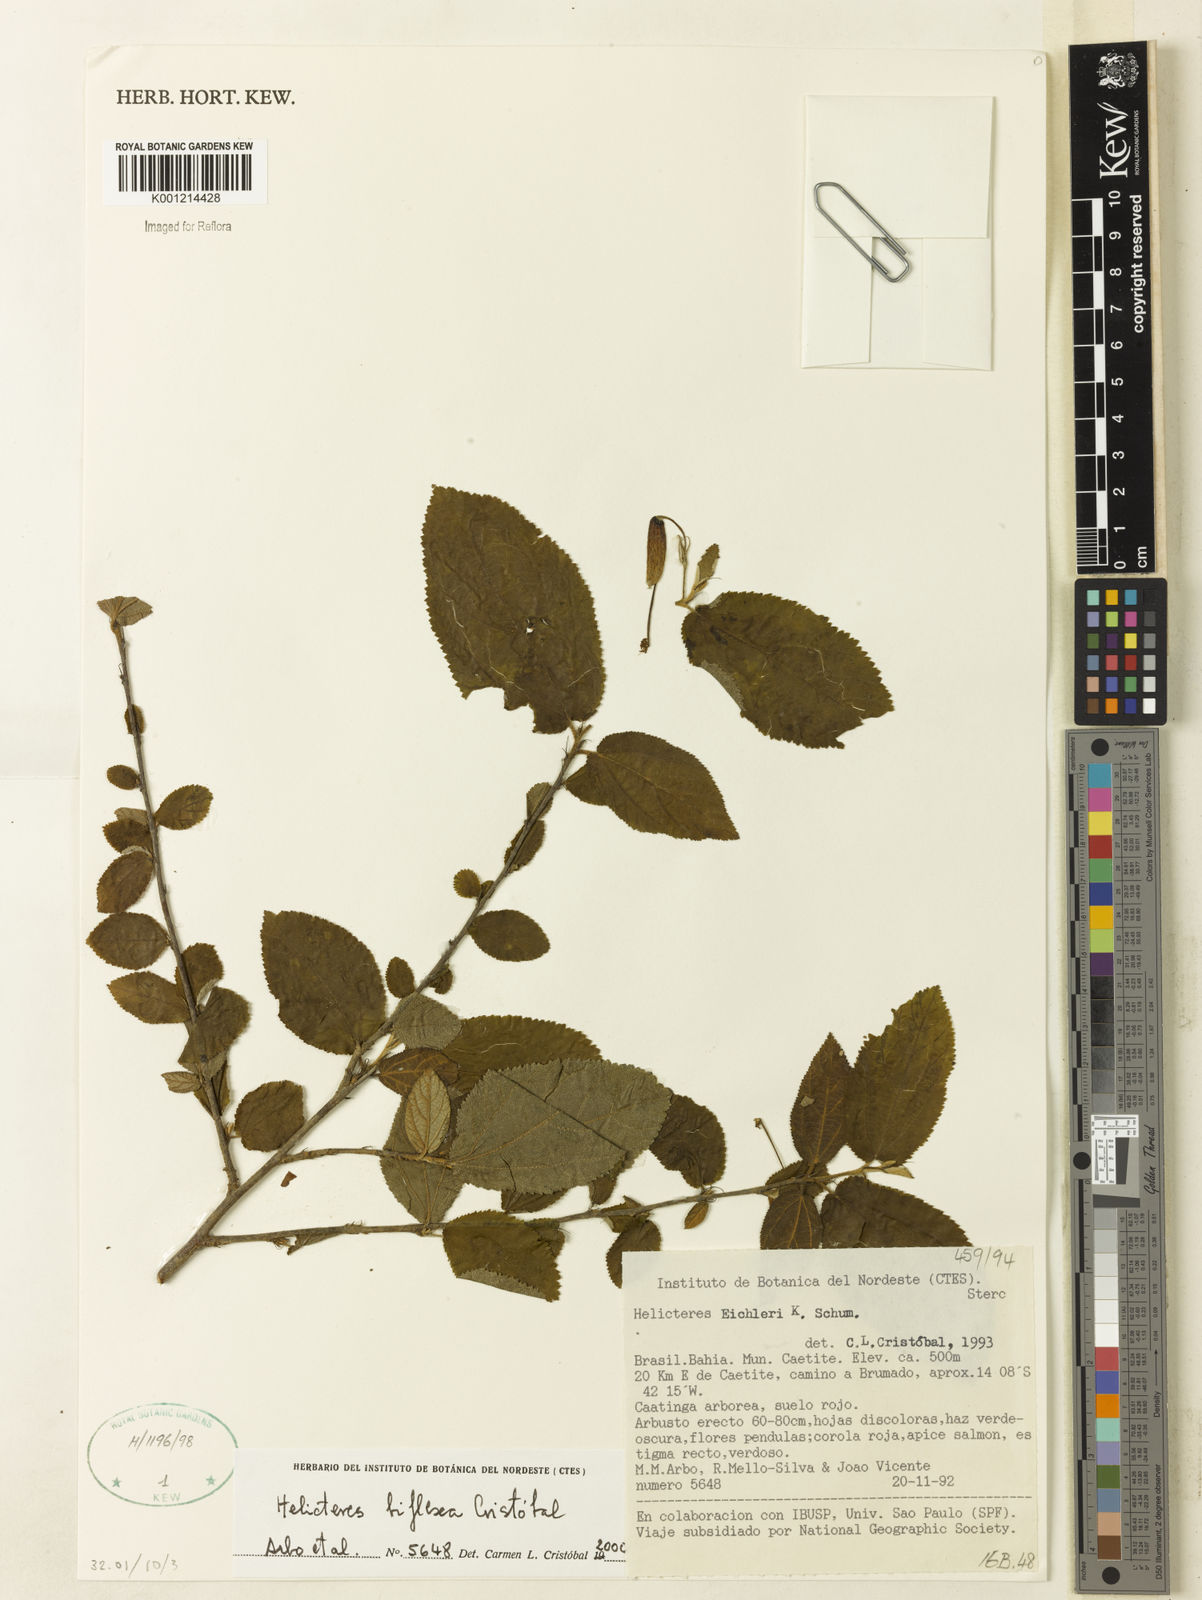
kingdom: Plantae
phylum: Tracheophyta
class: Magnoliopsida
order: Malvales
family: Malvaceae
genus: Helicteres
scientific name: Helicteres
